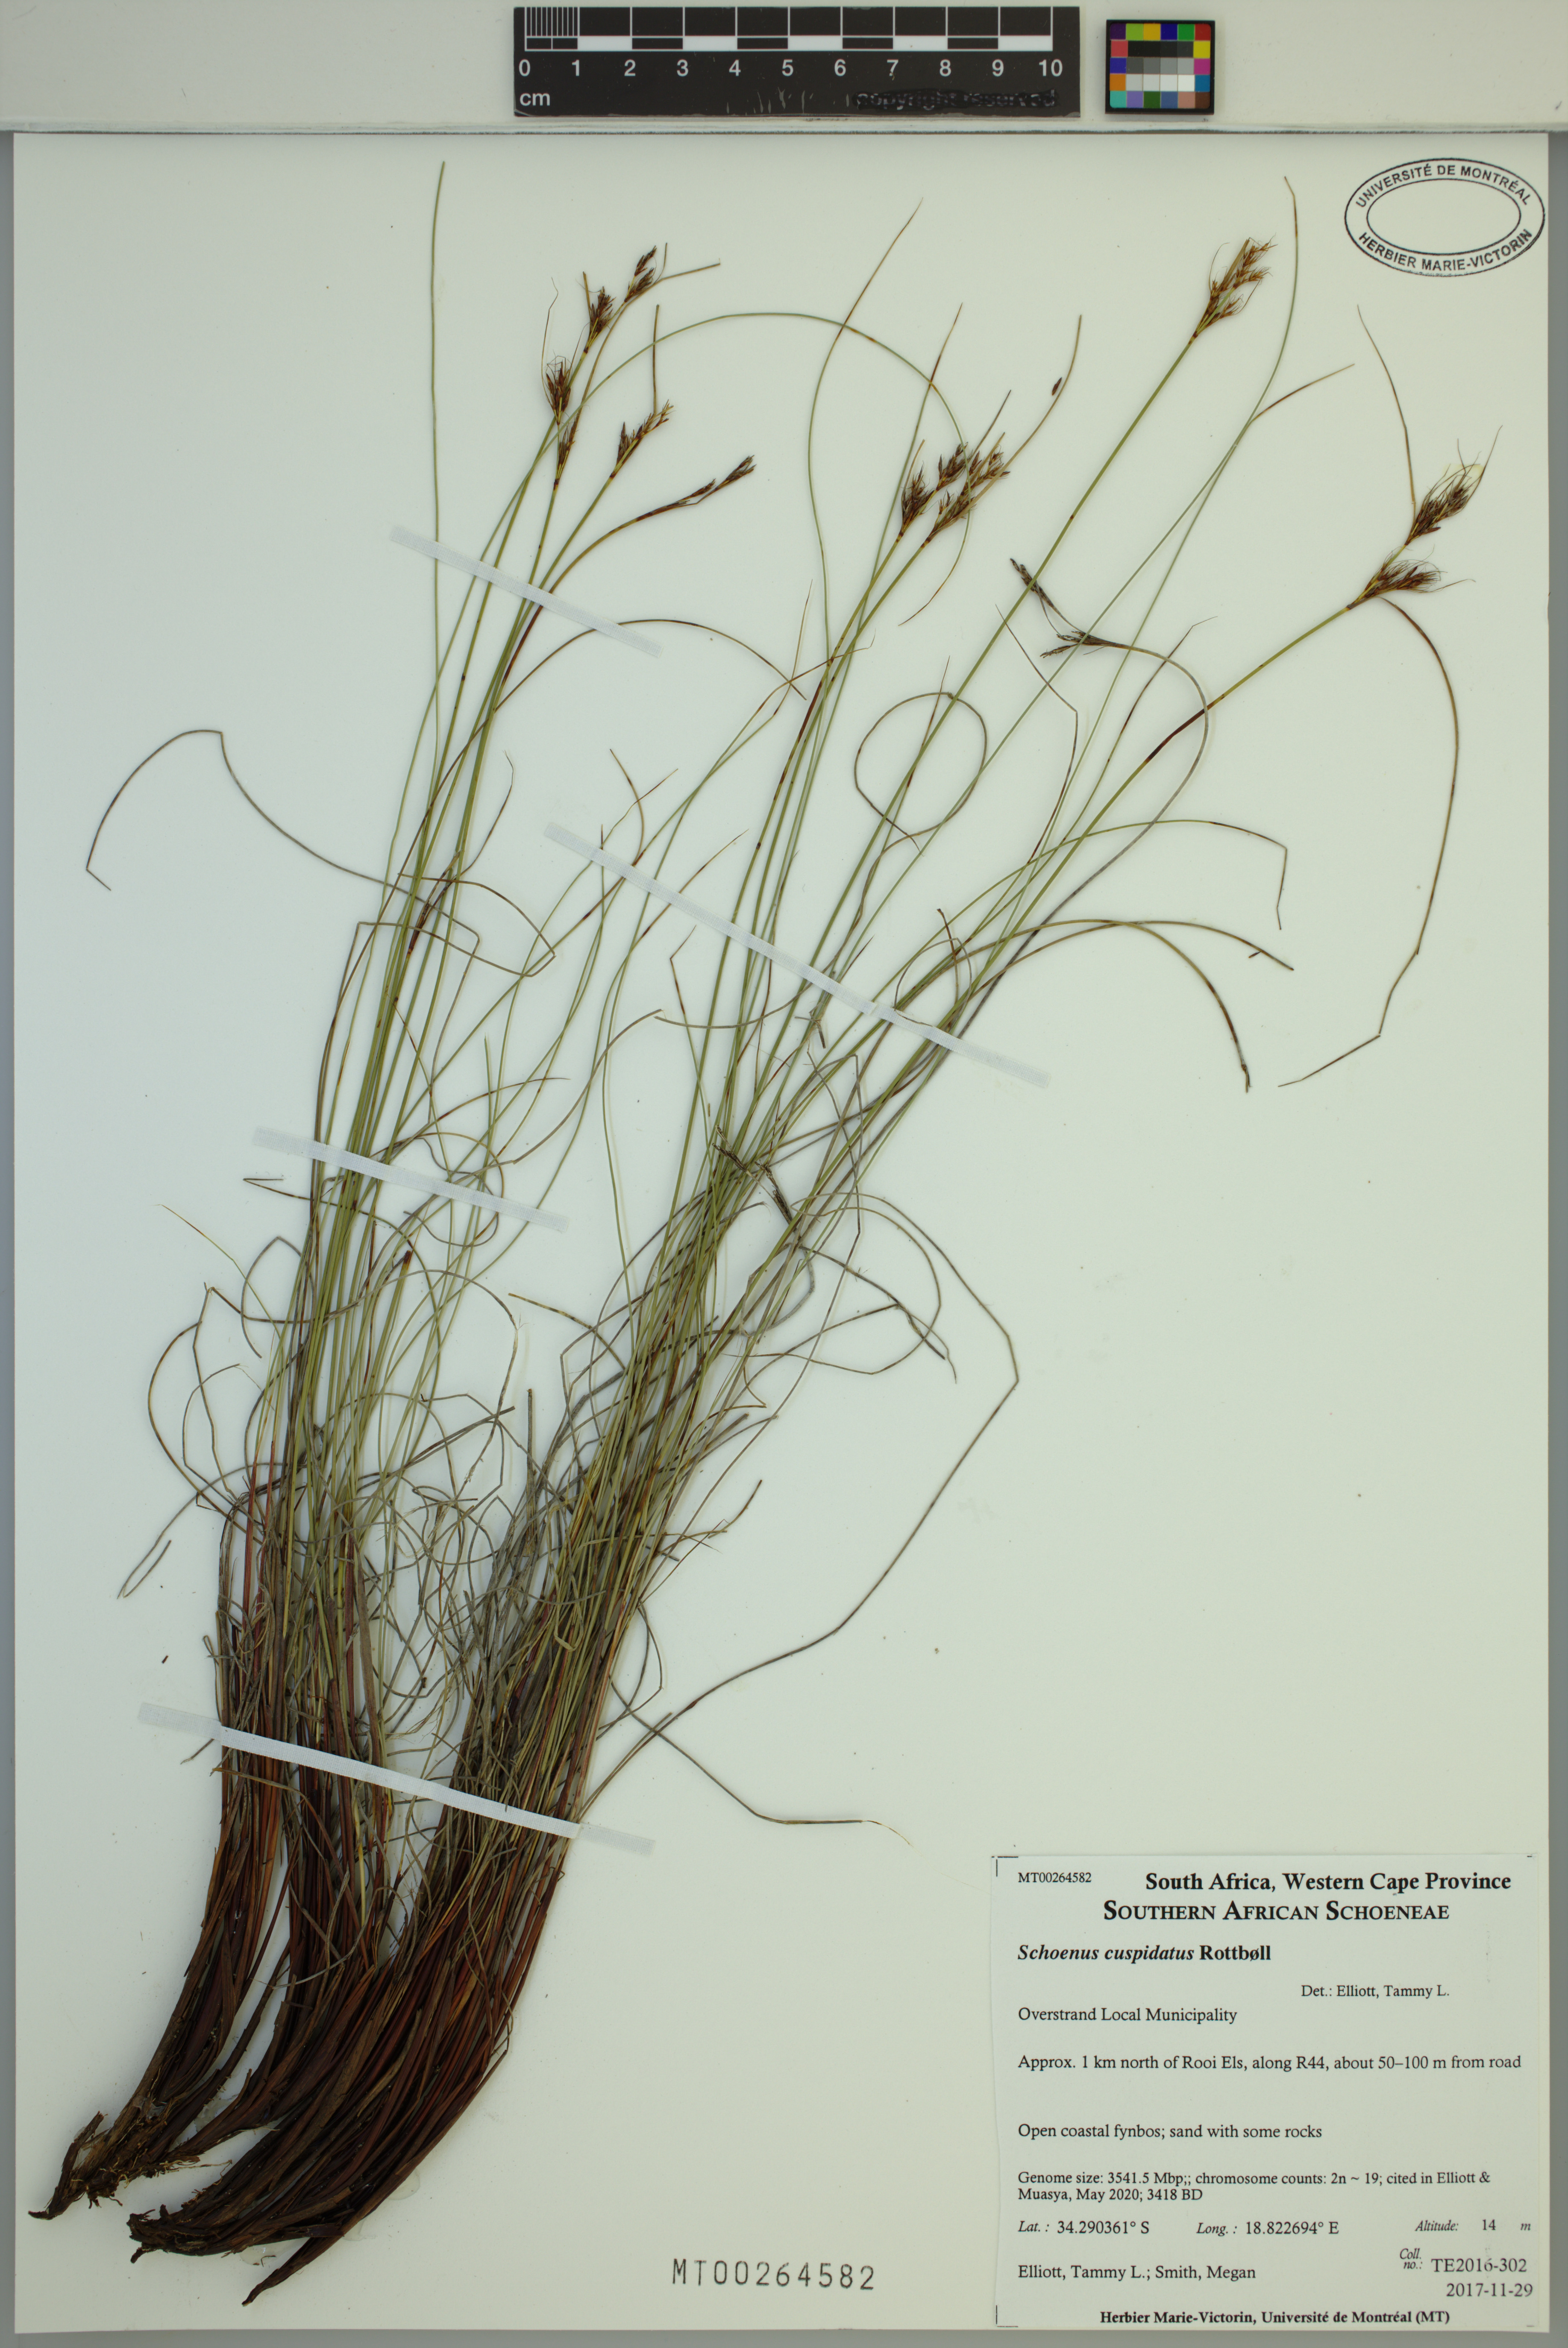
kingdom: Plantae
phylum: Tracheophyta
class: Liliopsida
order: Poales
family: Cyperaceae
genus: Schoenus
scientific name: Schoenus cuspidatus
